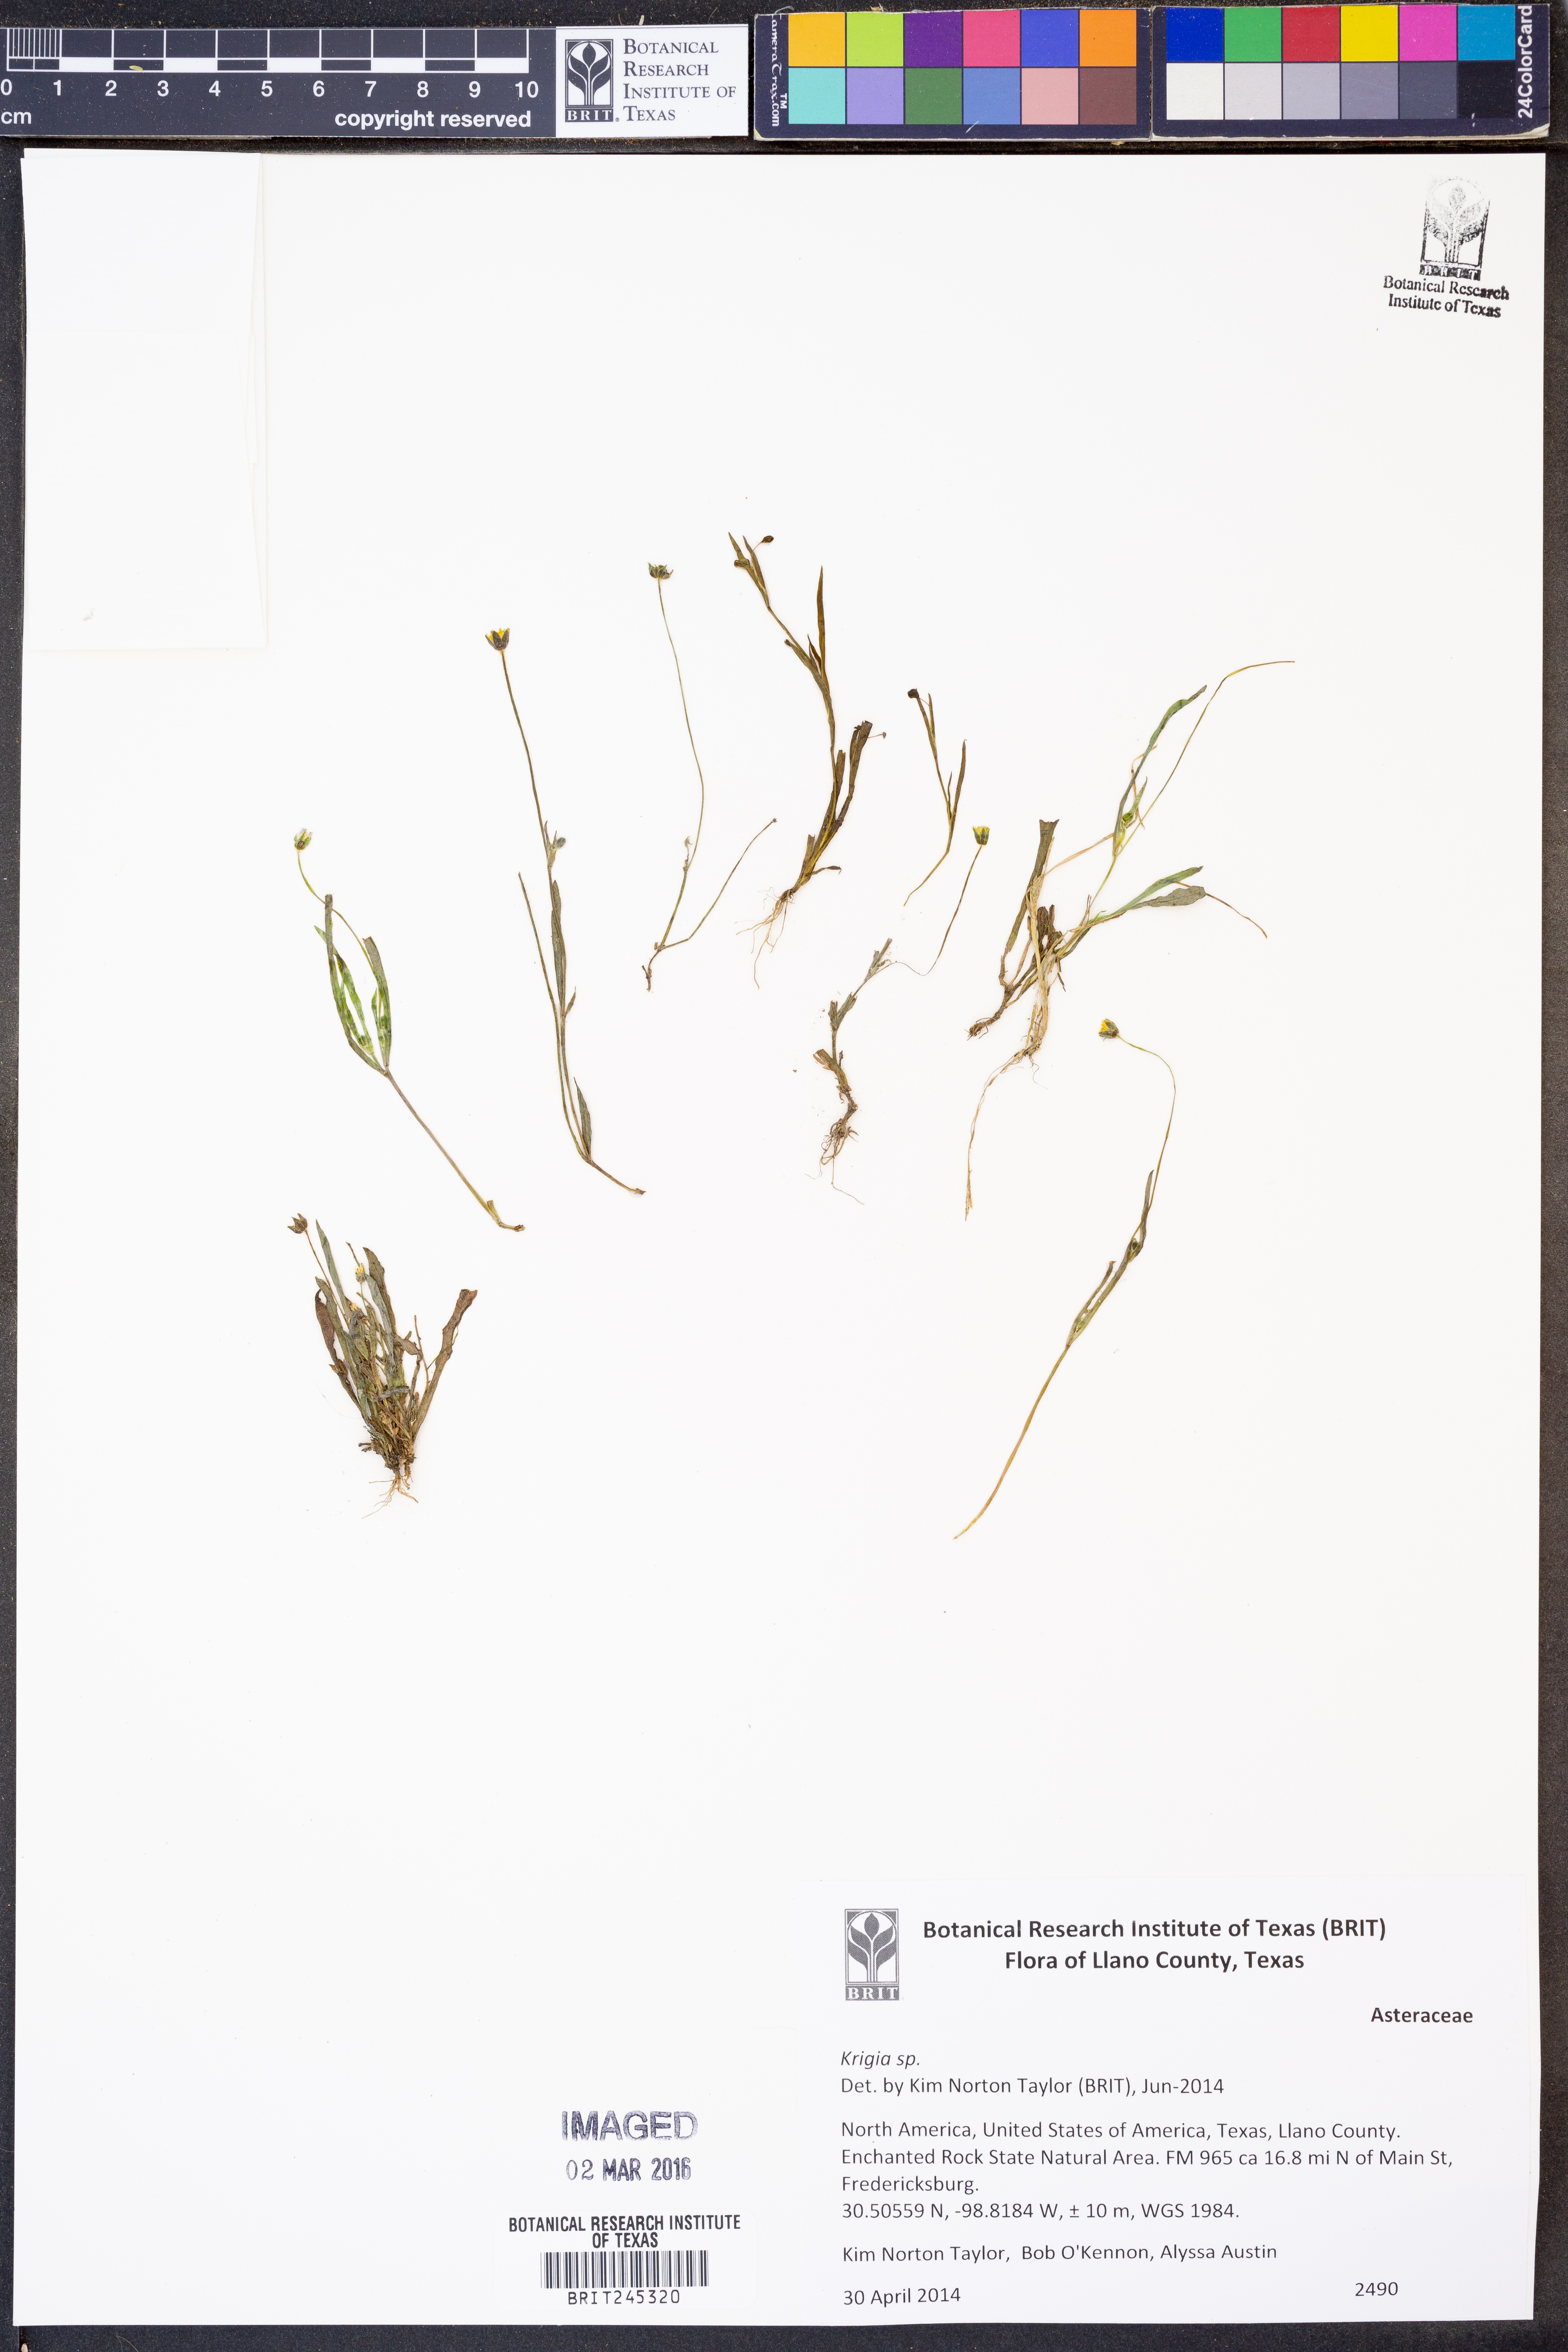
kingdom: Plantae
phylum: Tracheophyta
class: Magnoliopsida
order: Asterales
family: Asteraceae
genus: Krigia
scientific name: Krigia
